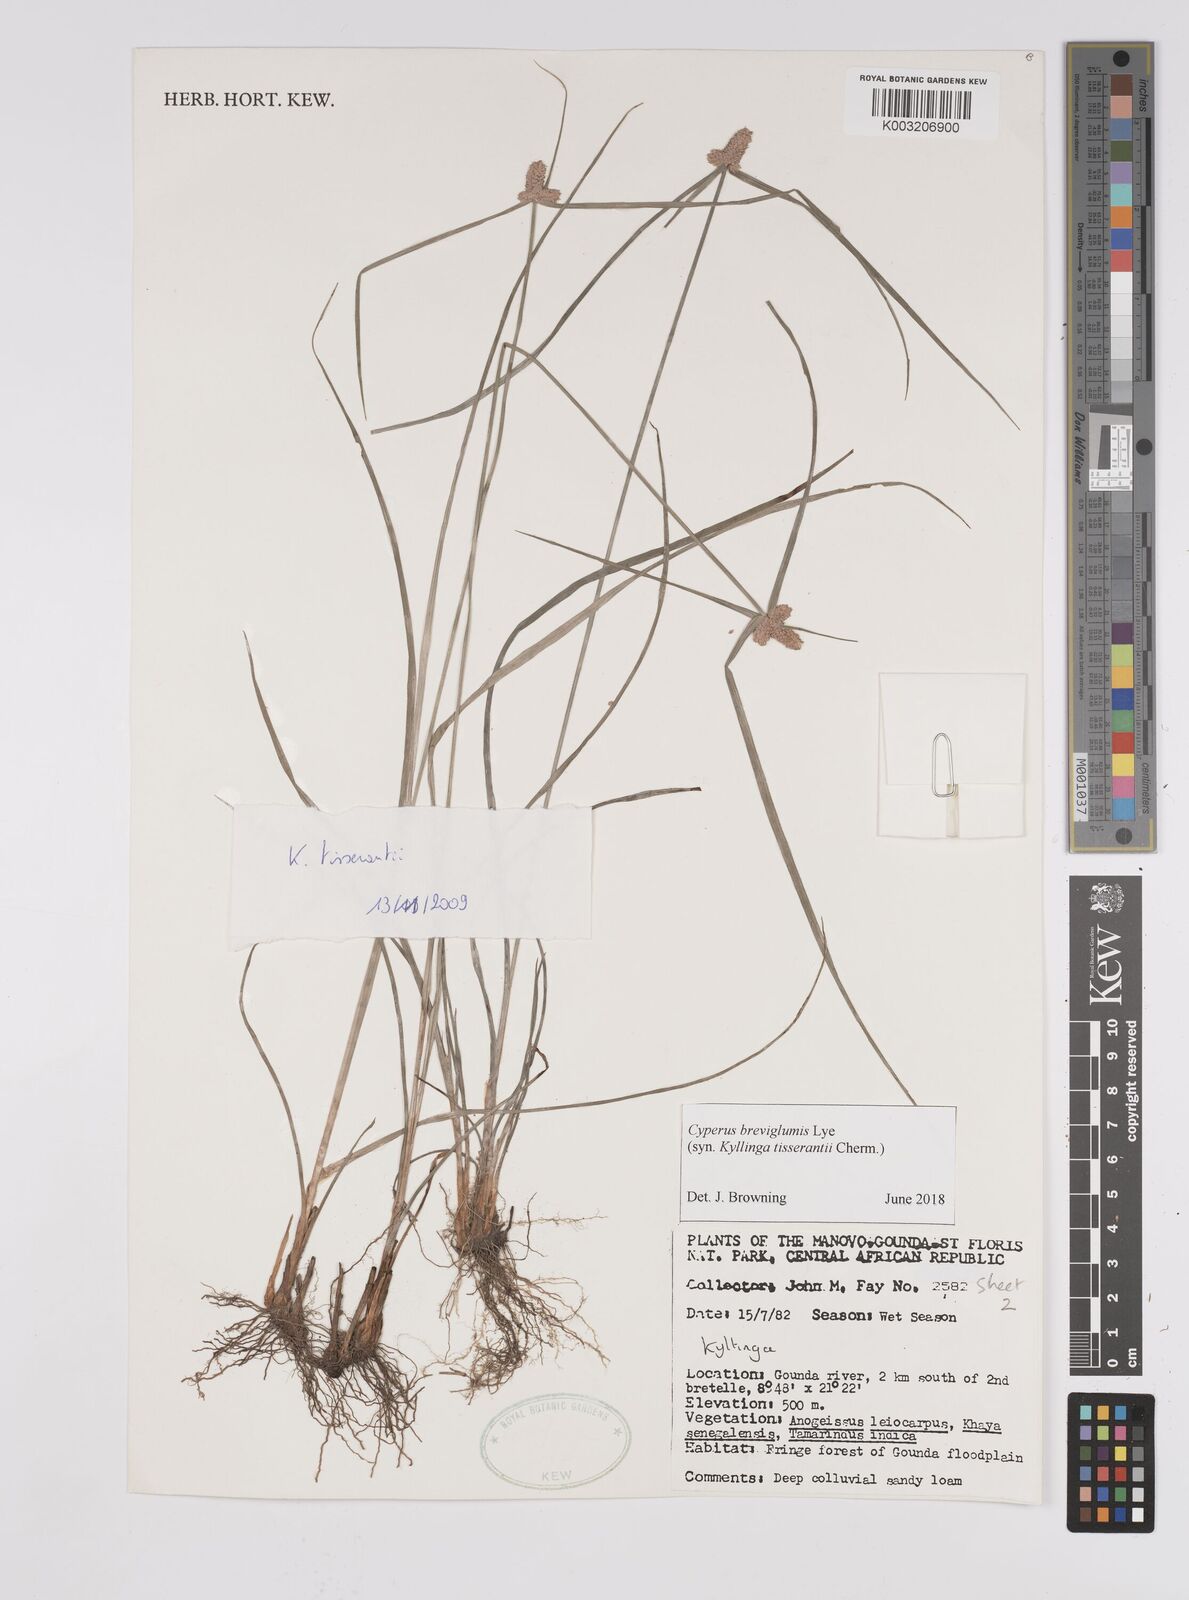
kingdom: Plantae
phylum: Tracheophyta
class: Liliopsida
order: Poales
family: Cyperaceae
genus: Cyperus
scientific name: Cyperus niveus
